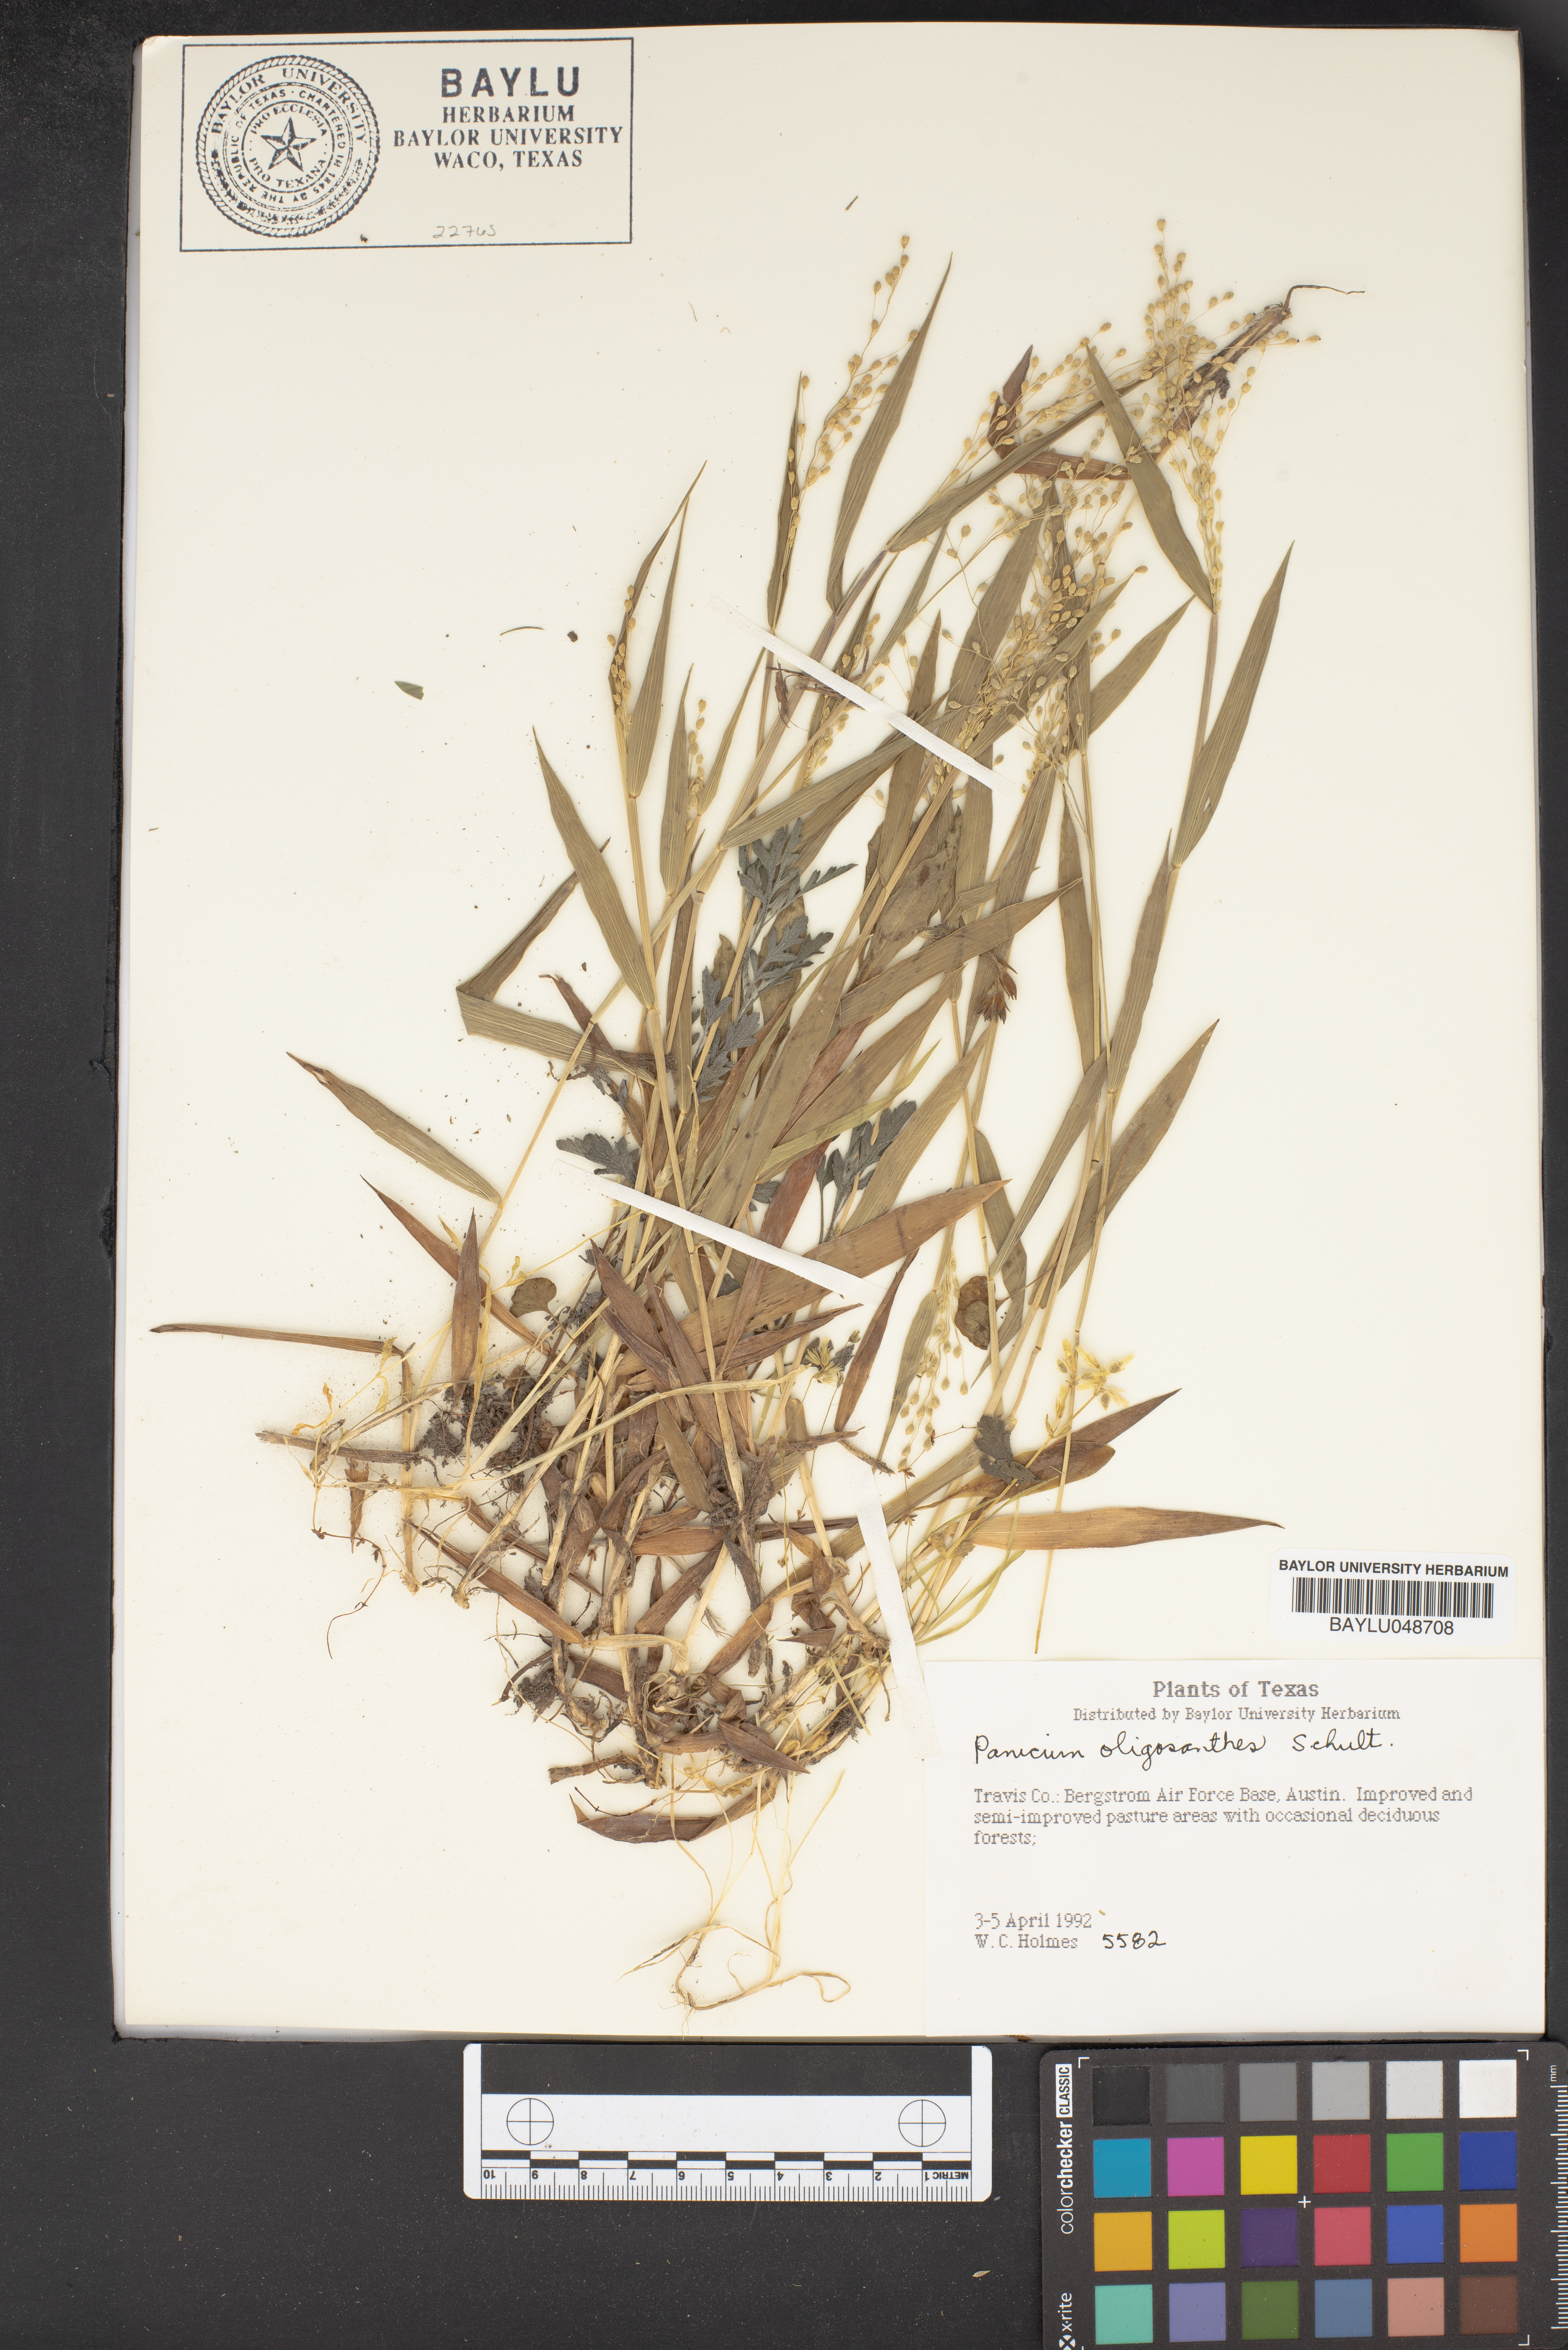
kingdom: Plantae
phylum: Tracheophyta
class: Liliopsida
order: Poales
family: Poaceae
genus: Dichanthelium
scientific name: Dichanthelium oligosanthes
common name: Few-anther obscuregrass
